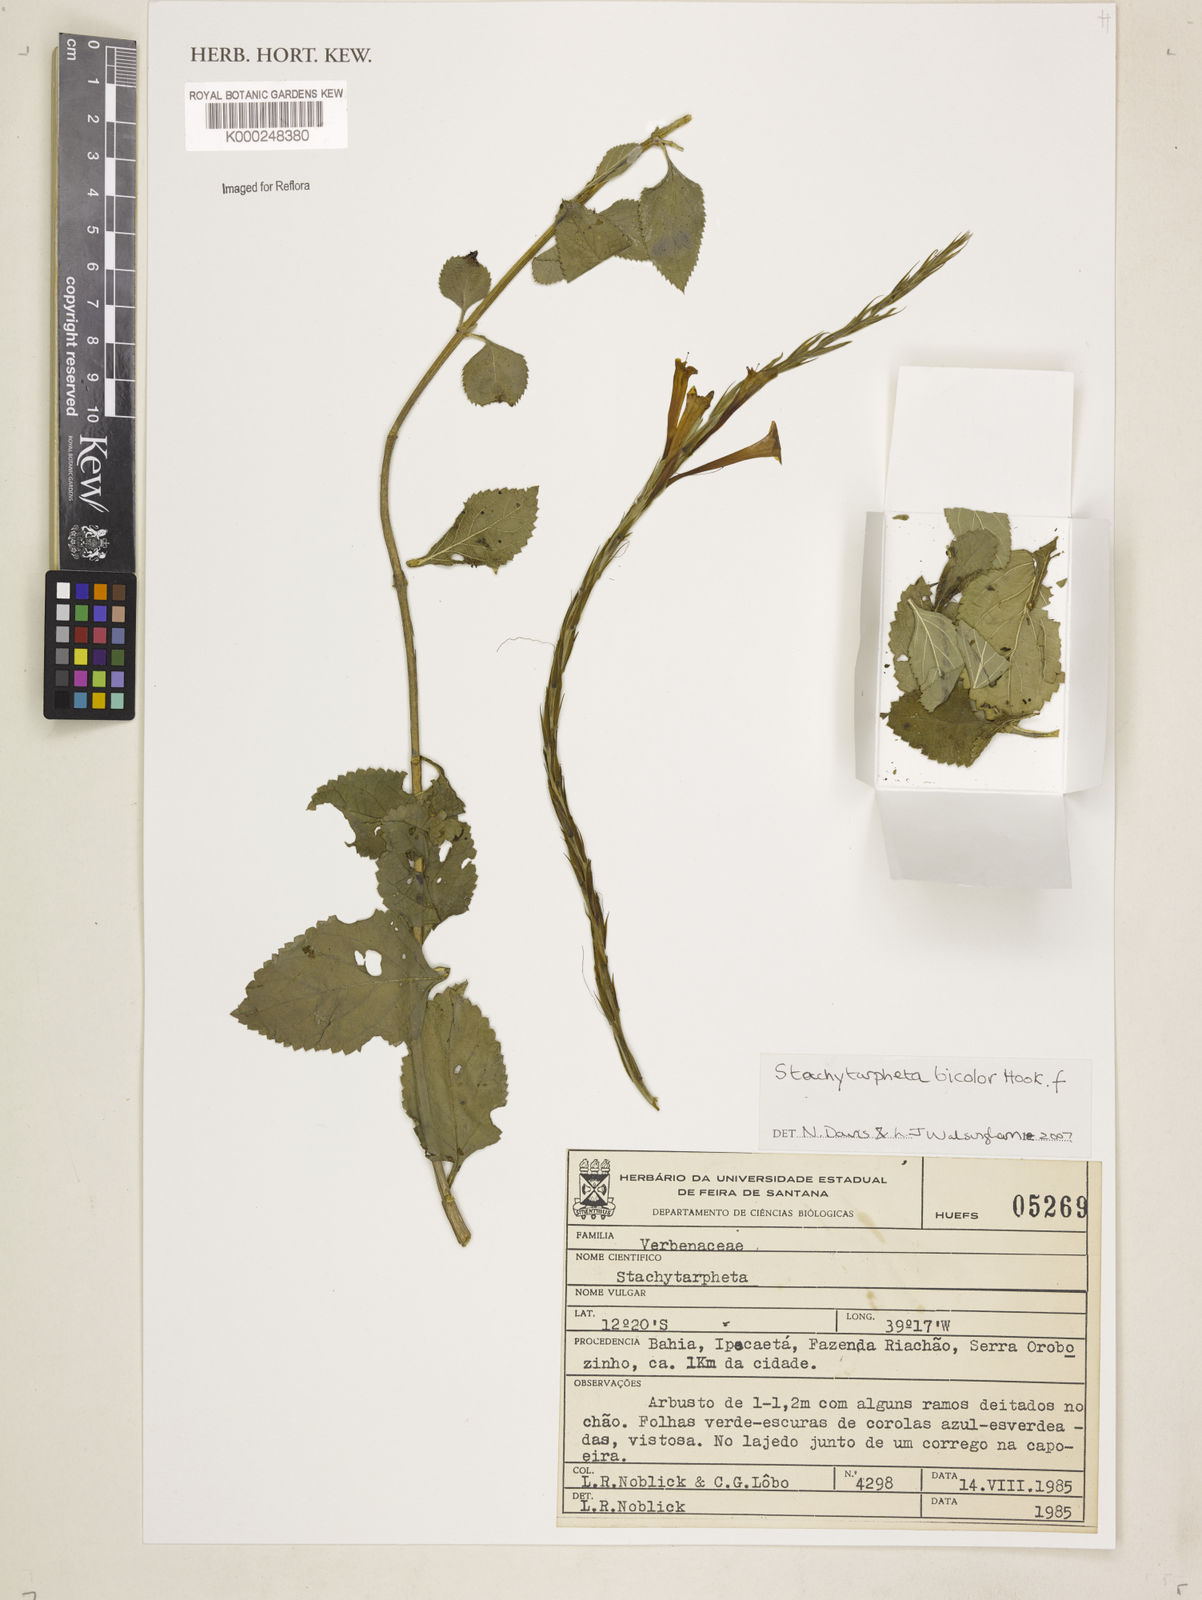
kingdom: Plantae
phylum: Tracheophyta
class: Magnoliopsida
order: Lamiales
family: Verbenaceae
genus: Stachytarpheta
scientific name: Stachytarpheta bicolor
